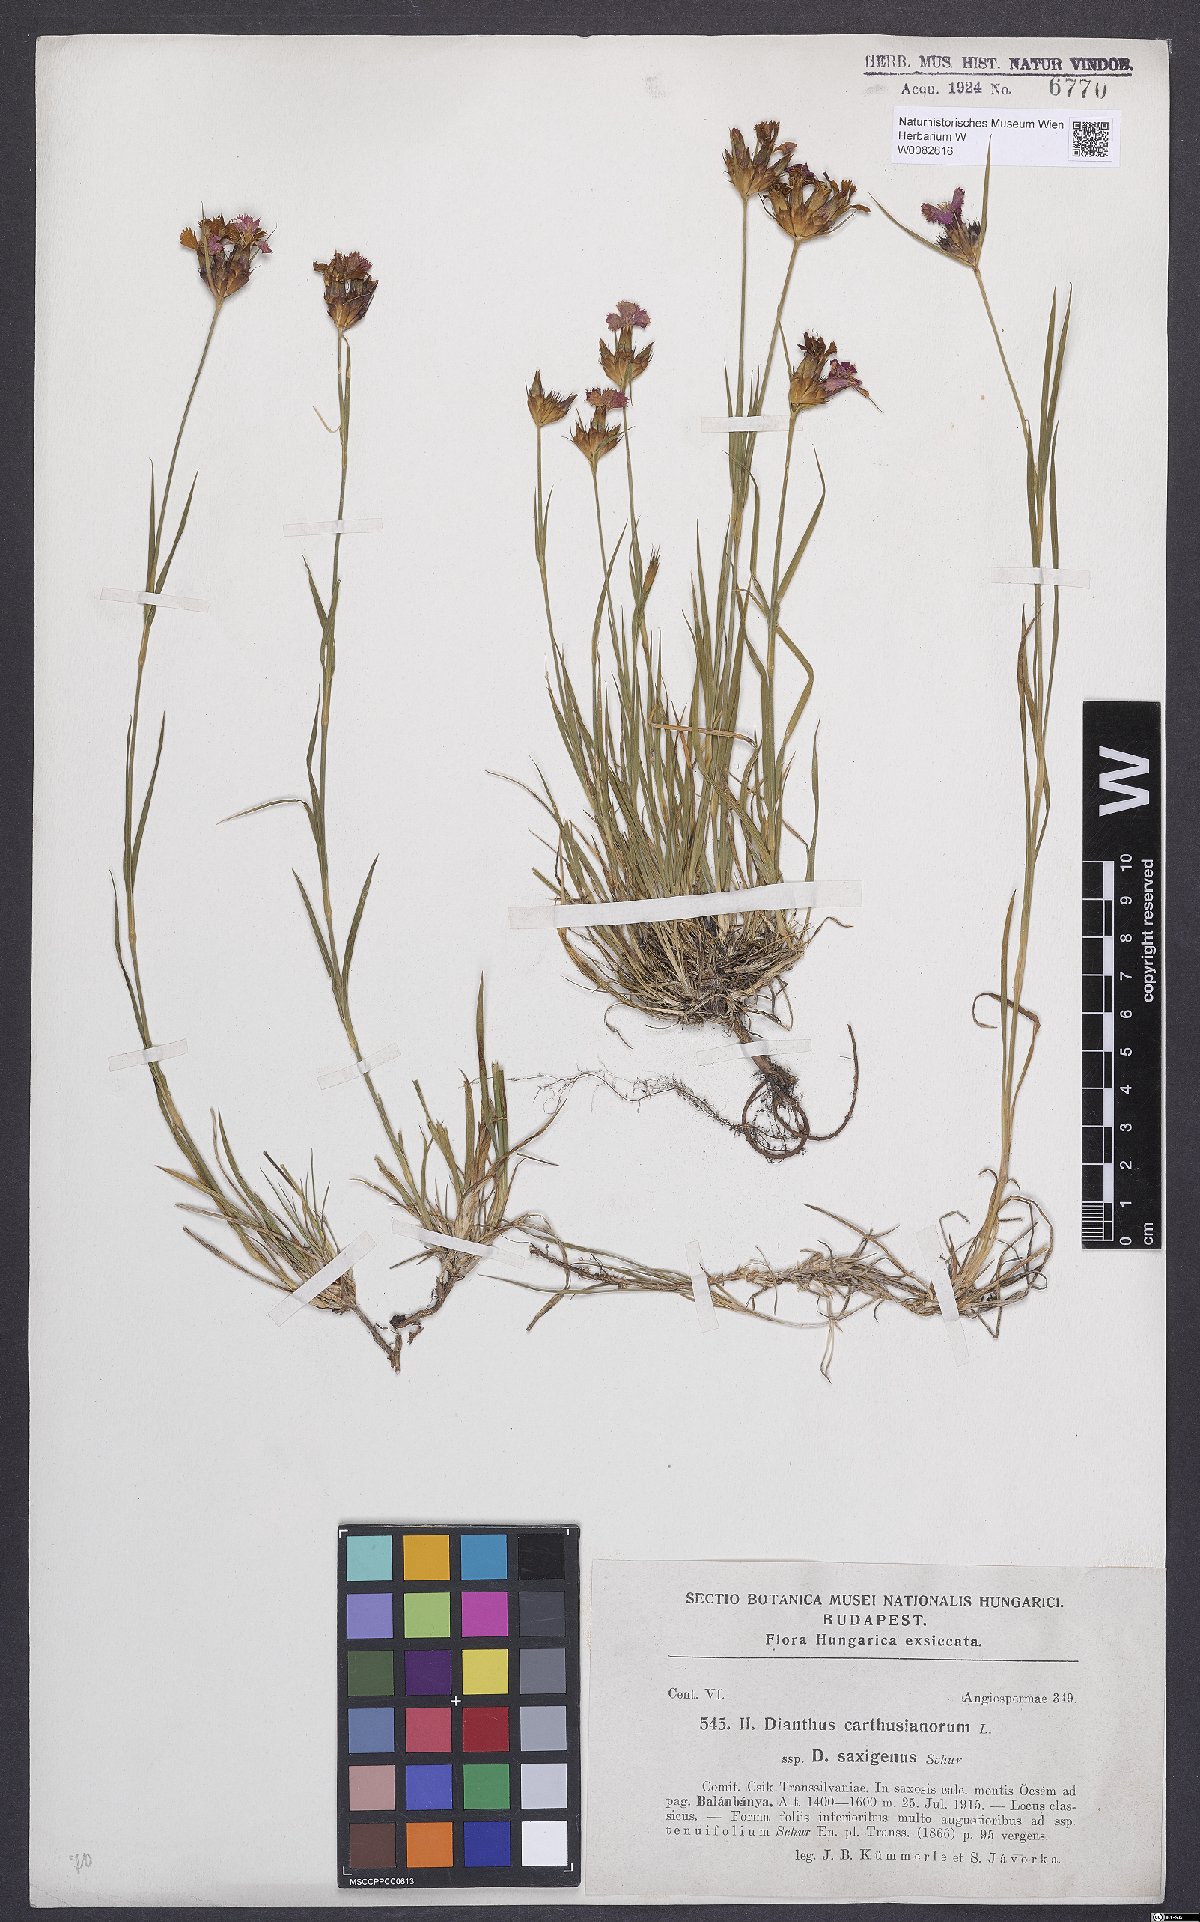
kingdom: Plantae
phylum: Tracheophyta
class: Magnoliopsida
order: Caryophyllales
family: Caryophyllaceae
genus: Dianthus
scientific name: Dianthus carthusianorum
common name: Carthusian pink
